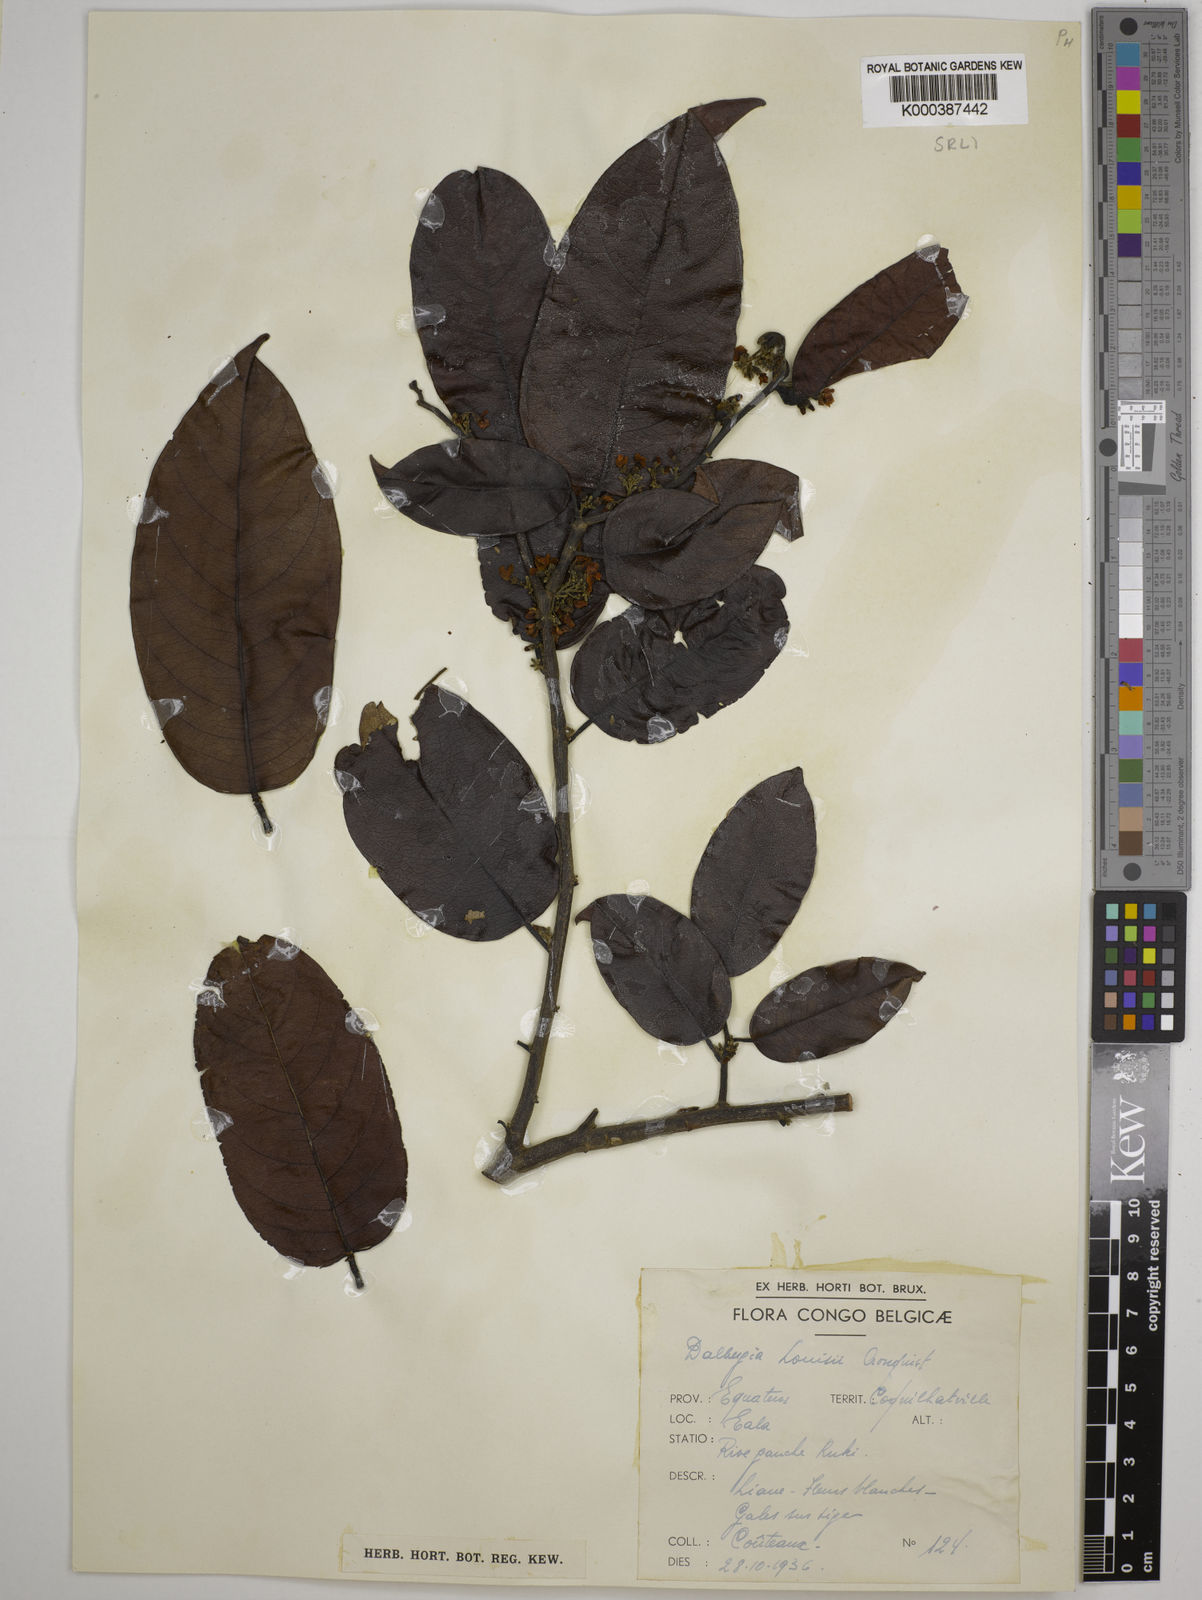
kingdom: Plantae
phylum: Tracheophyta
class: Magnoliopsida
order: Fabales
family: Fabaceae
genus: Dalbergia
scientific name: Dalbergia louisii
